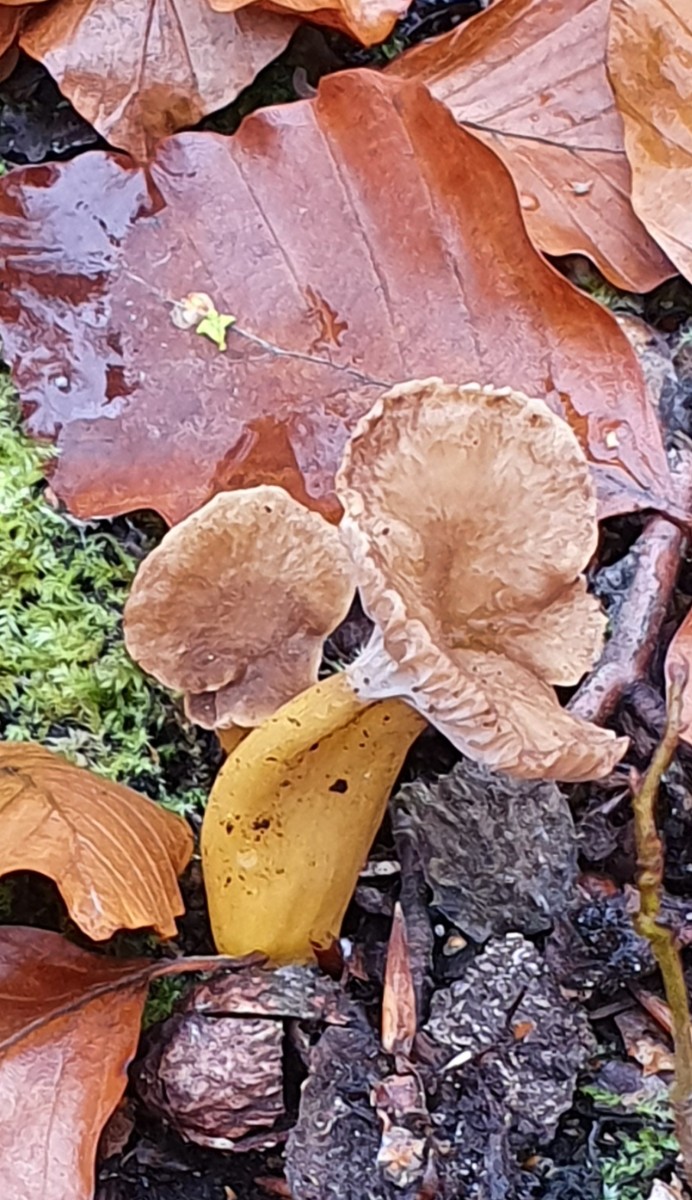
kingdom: Fungi
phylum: Basidiomycota
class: Agaricomycetes
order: Cantharellales
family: Hydnaceae
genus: Craterellus
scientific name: Craterellus tubaeformis
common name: tragt-kantarel
